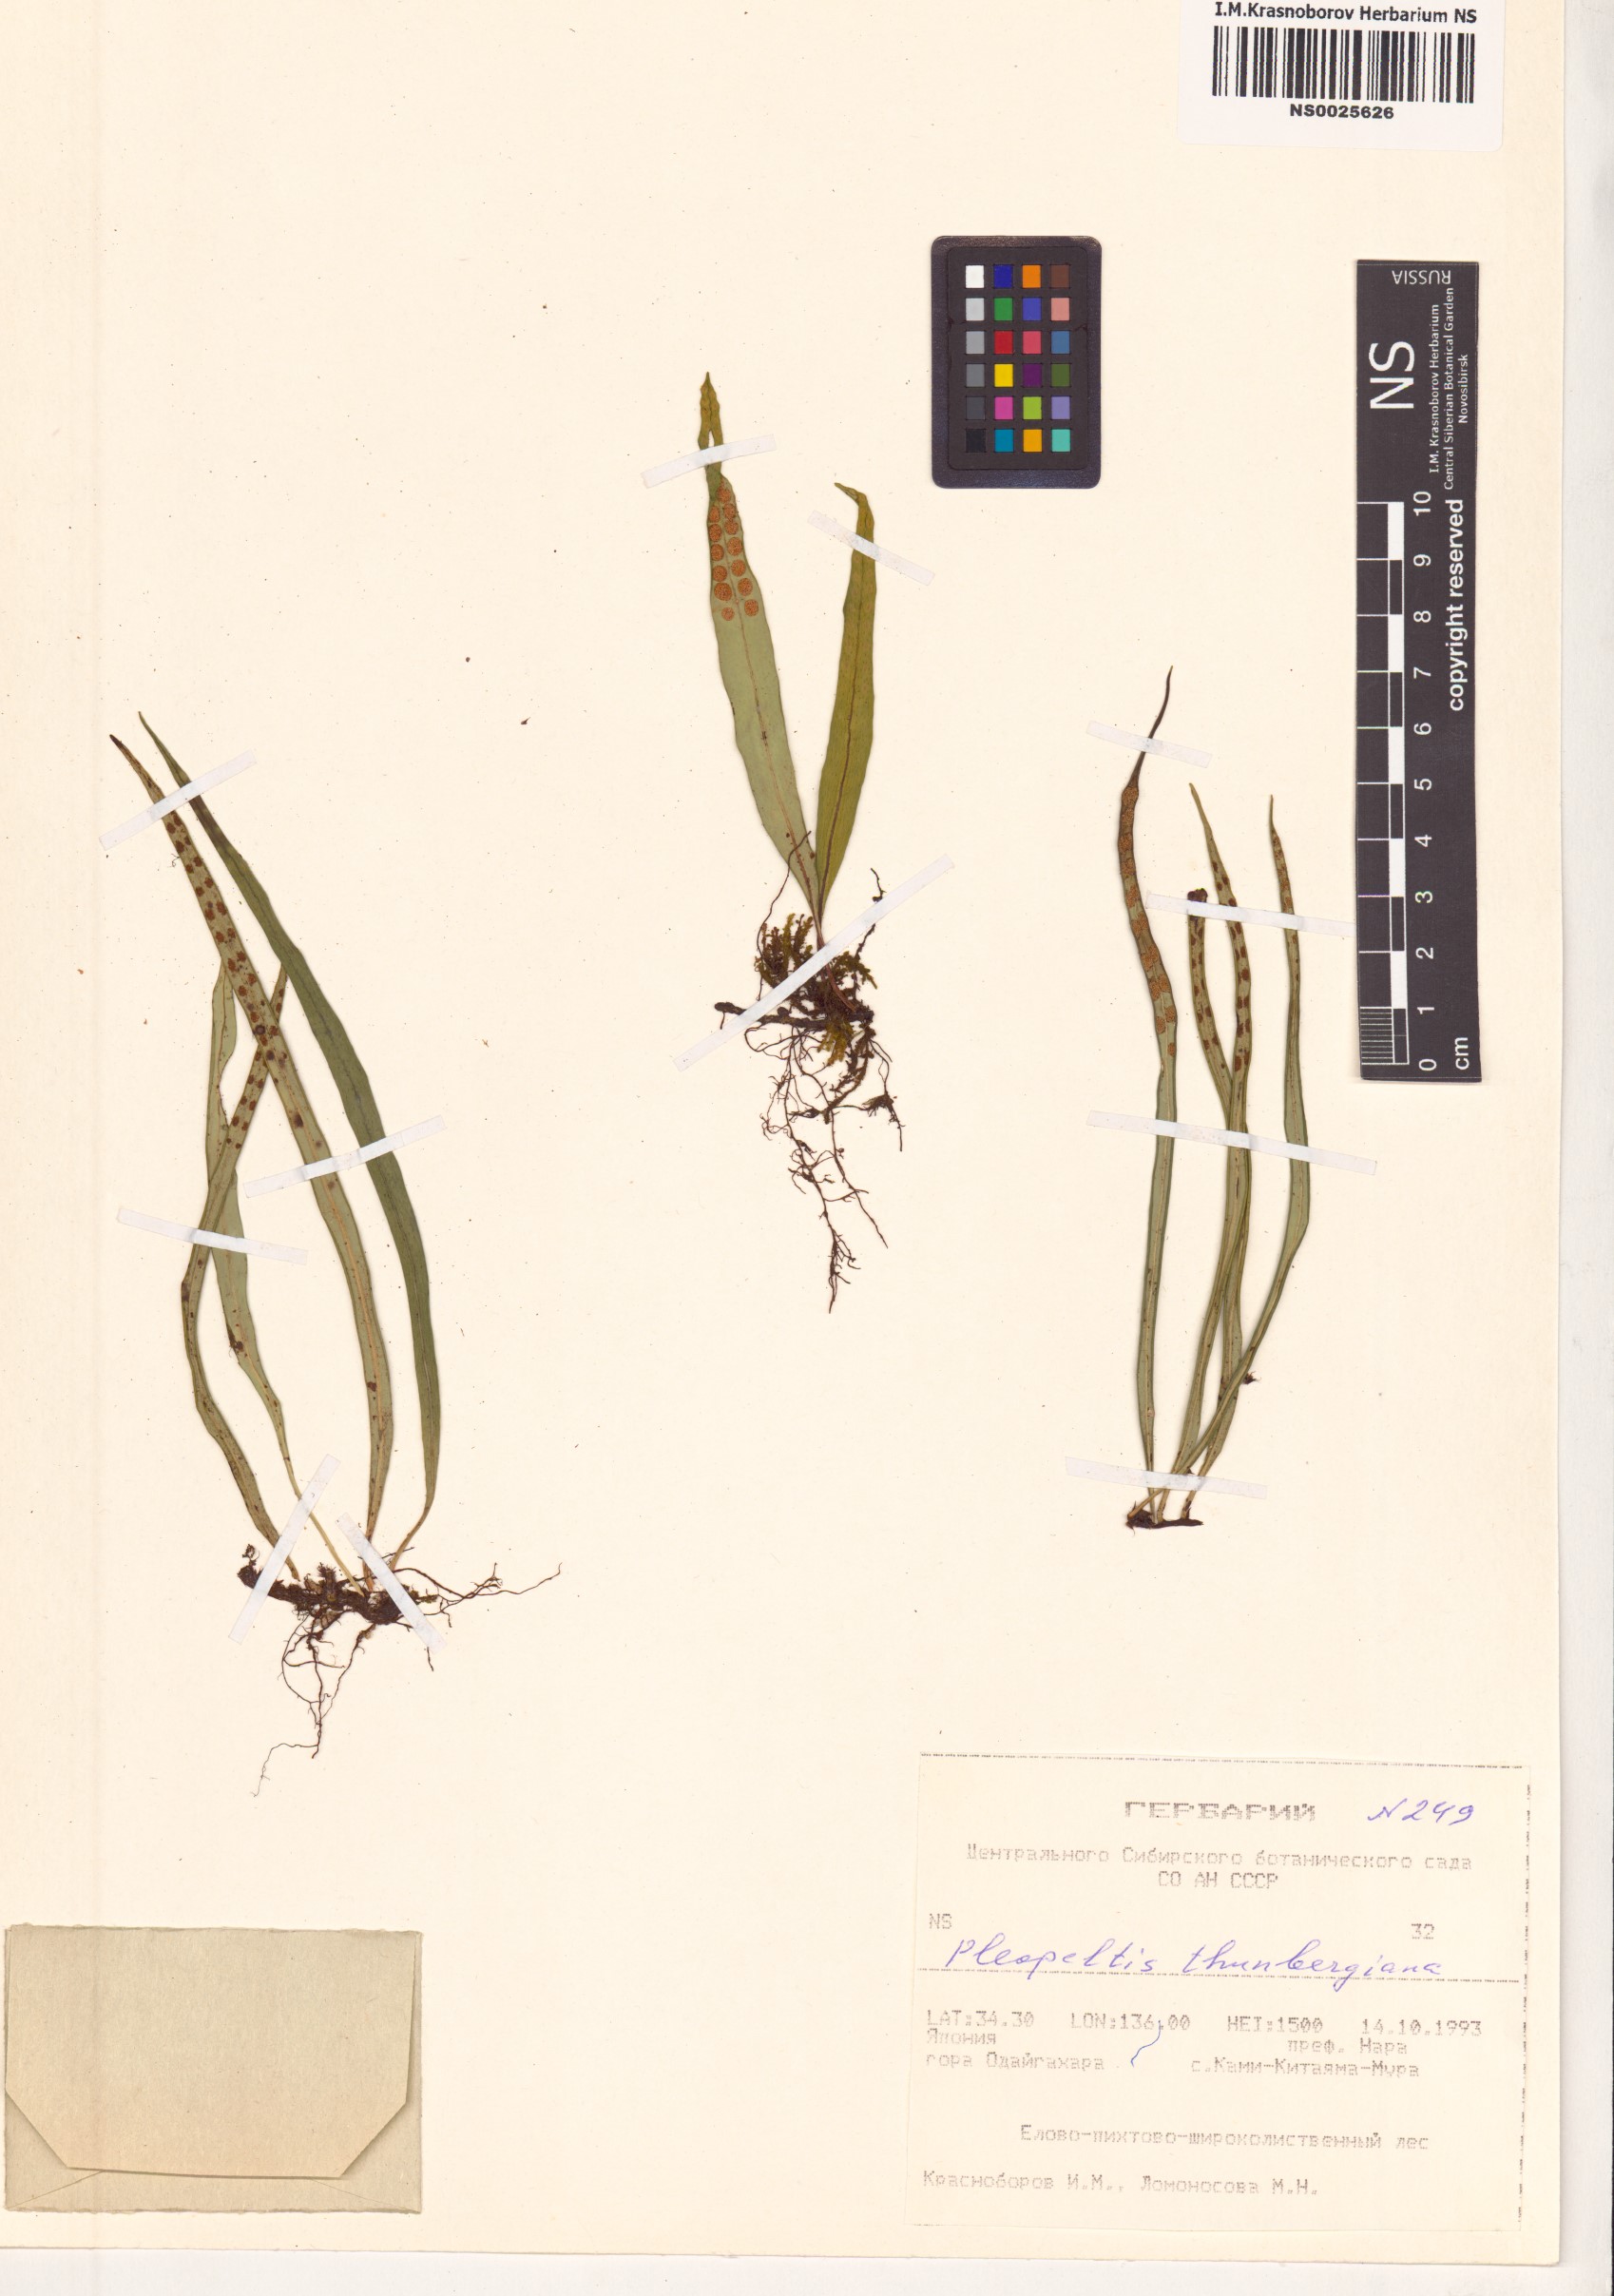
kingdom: Plantae
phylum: Tracheophyta
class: Polypodiopsida
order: Polypodiales
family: Polypodiaceae
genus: Lepisorus
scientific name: Lepisorus thunbergianus
